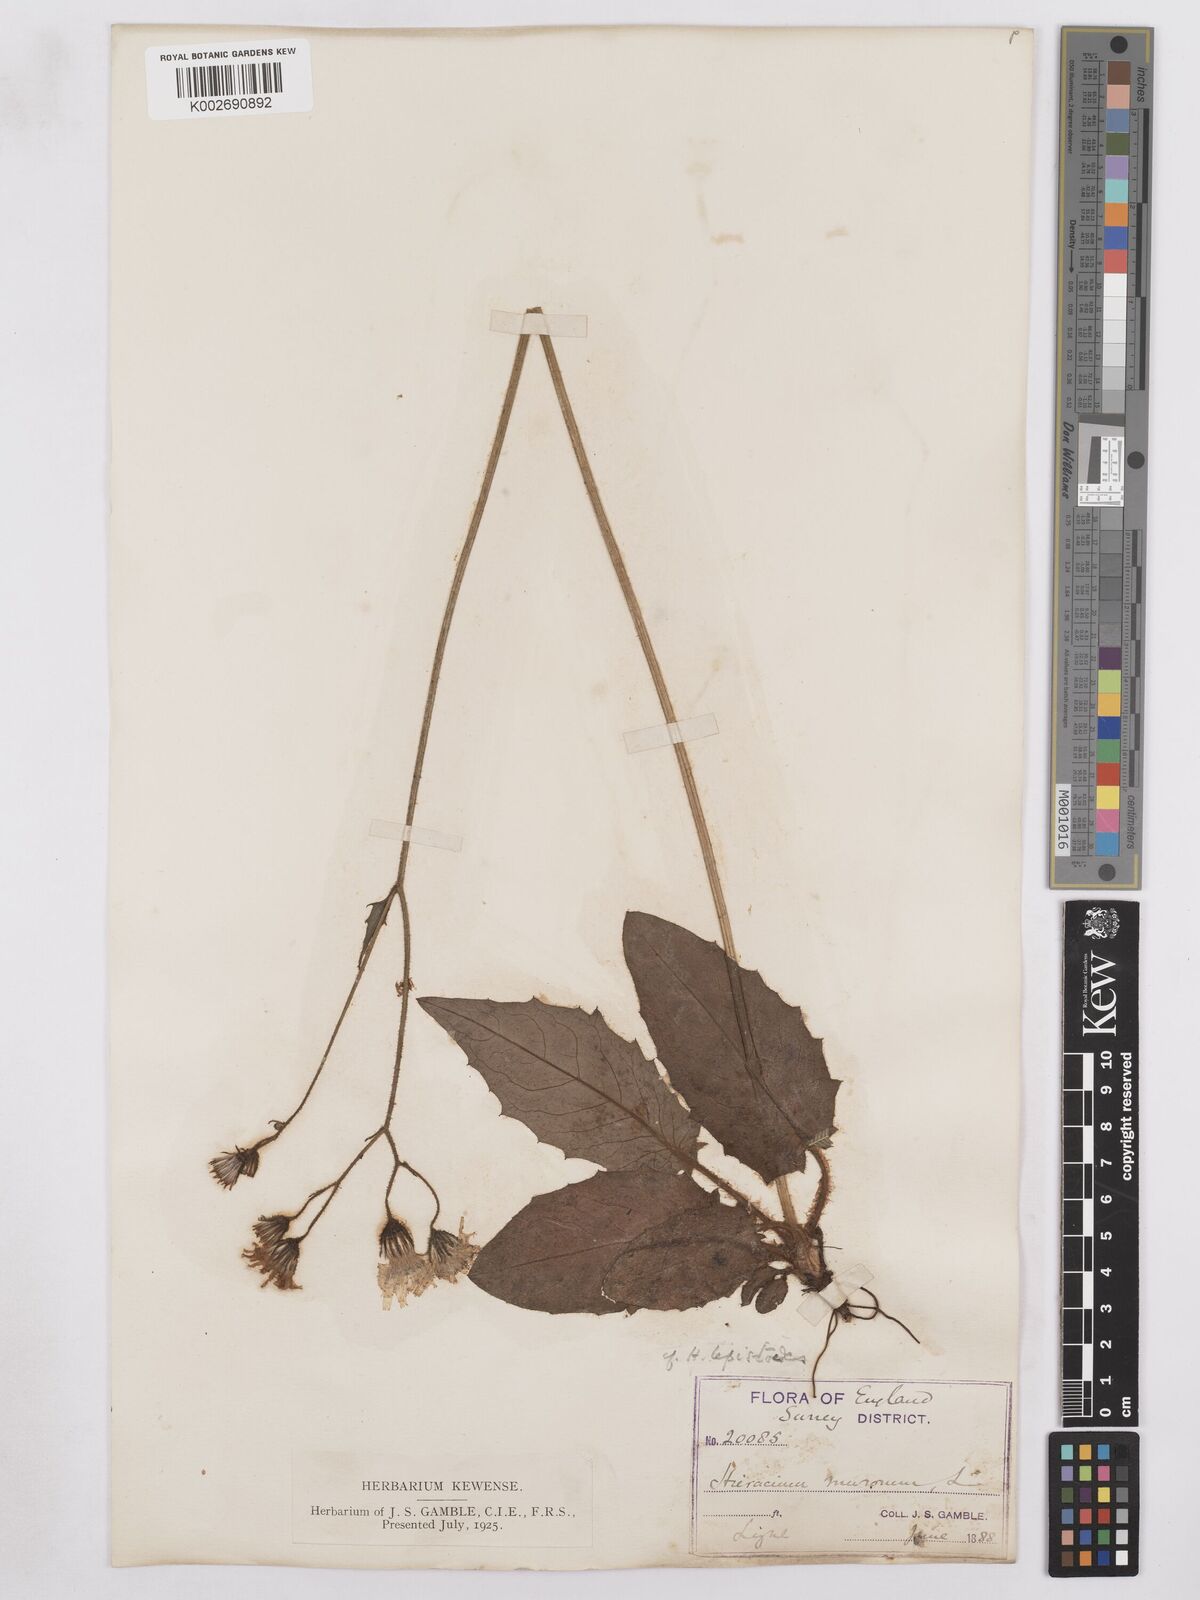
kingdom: Plantae
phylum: Tracheophyta
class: Magnoliopsida
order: Asterales
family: Asteraceae
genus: Hieracium
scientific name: Hieracium murorum
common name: Wall hawkweed
